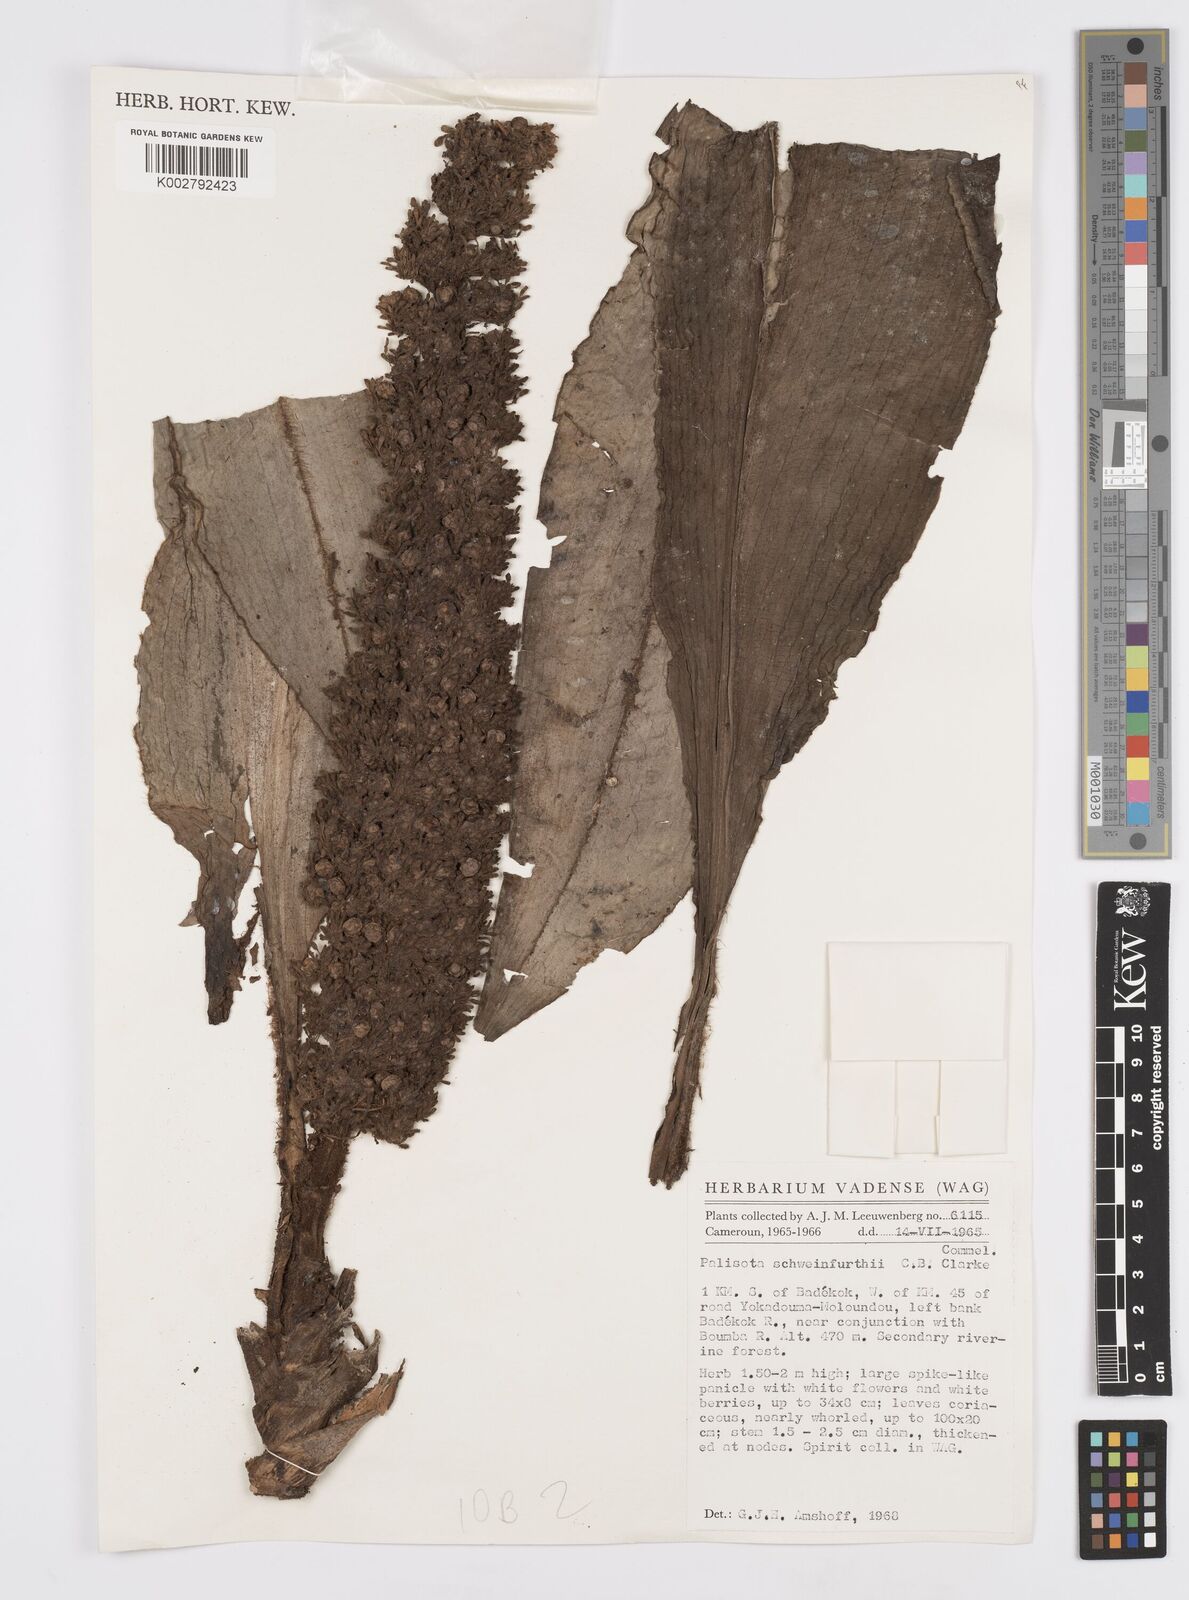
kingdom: Plantae
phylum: Tracheophyta
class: Liliopsida
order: Commelinales
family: Commelinaceae
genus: Palisota
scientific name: Palisota schweinfurthii
